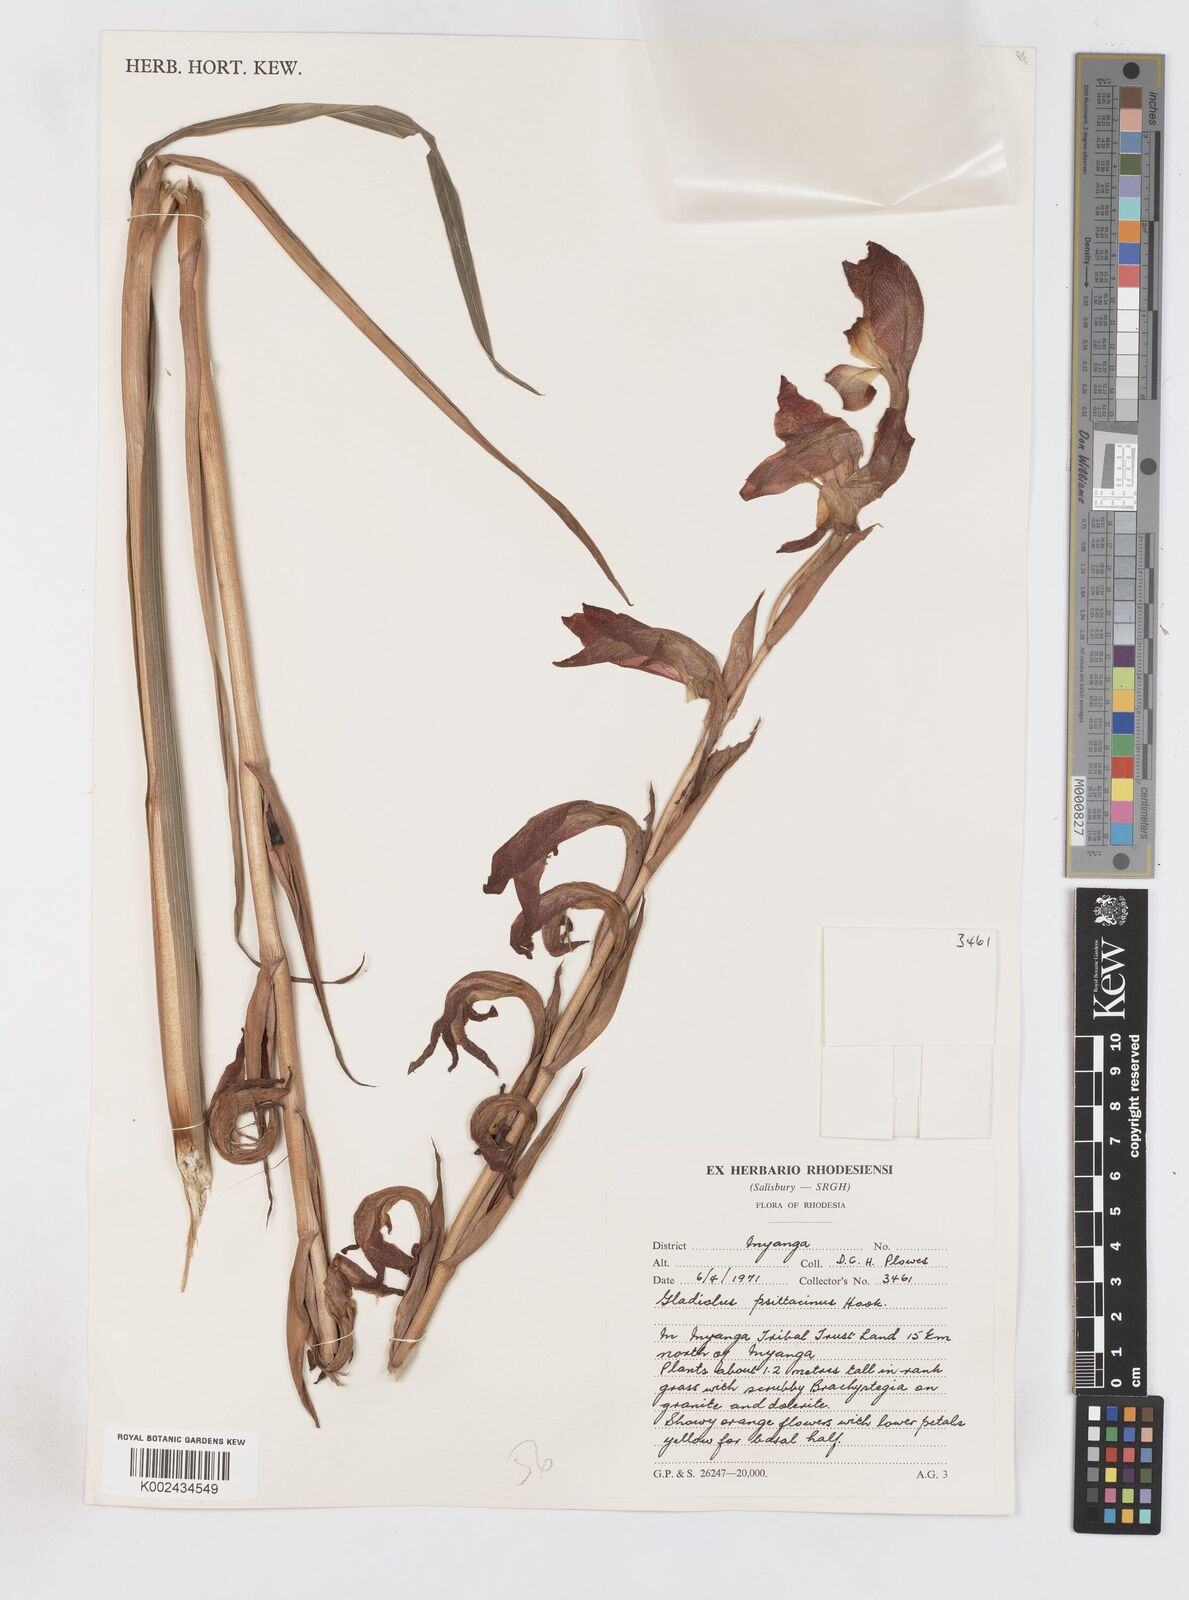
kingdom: Plantae
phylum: Tracheophyta
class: Liliopsida
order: Asparagales
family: Iridaceae
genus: Gladiolus
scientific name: Gladiolus dalenii
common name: Cornflag
